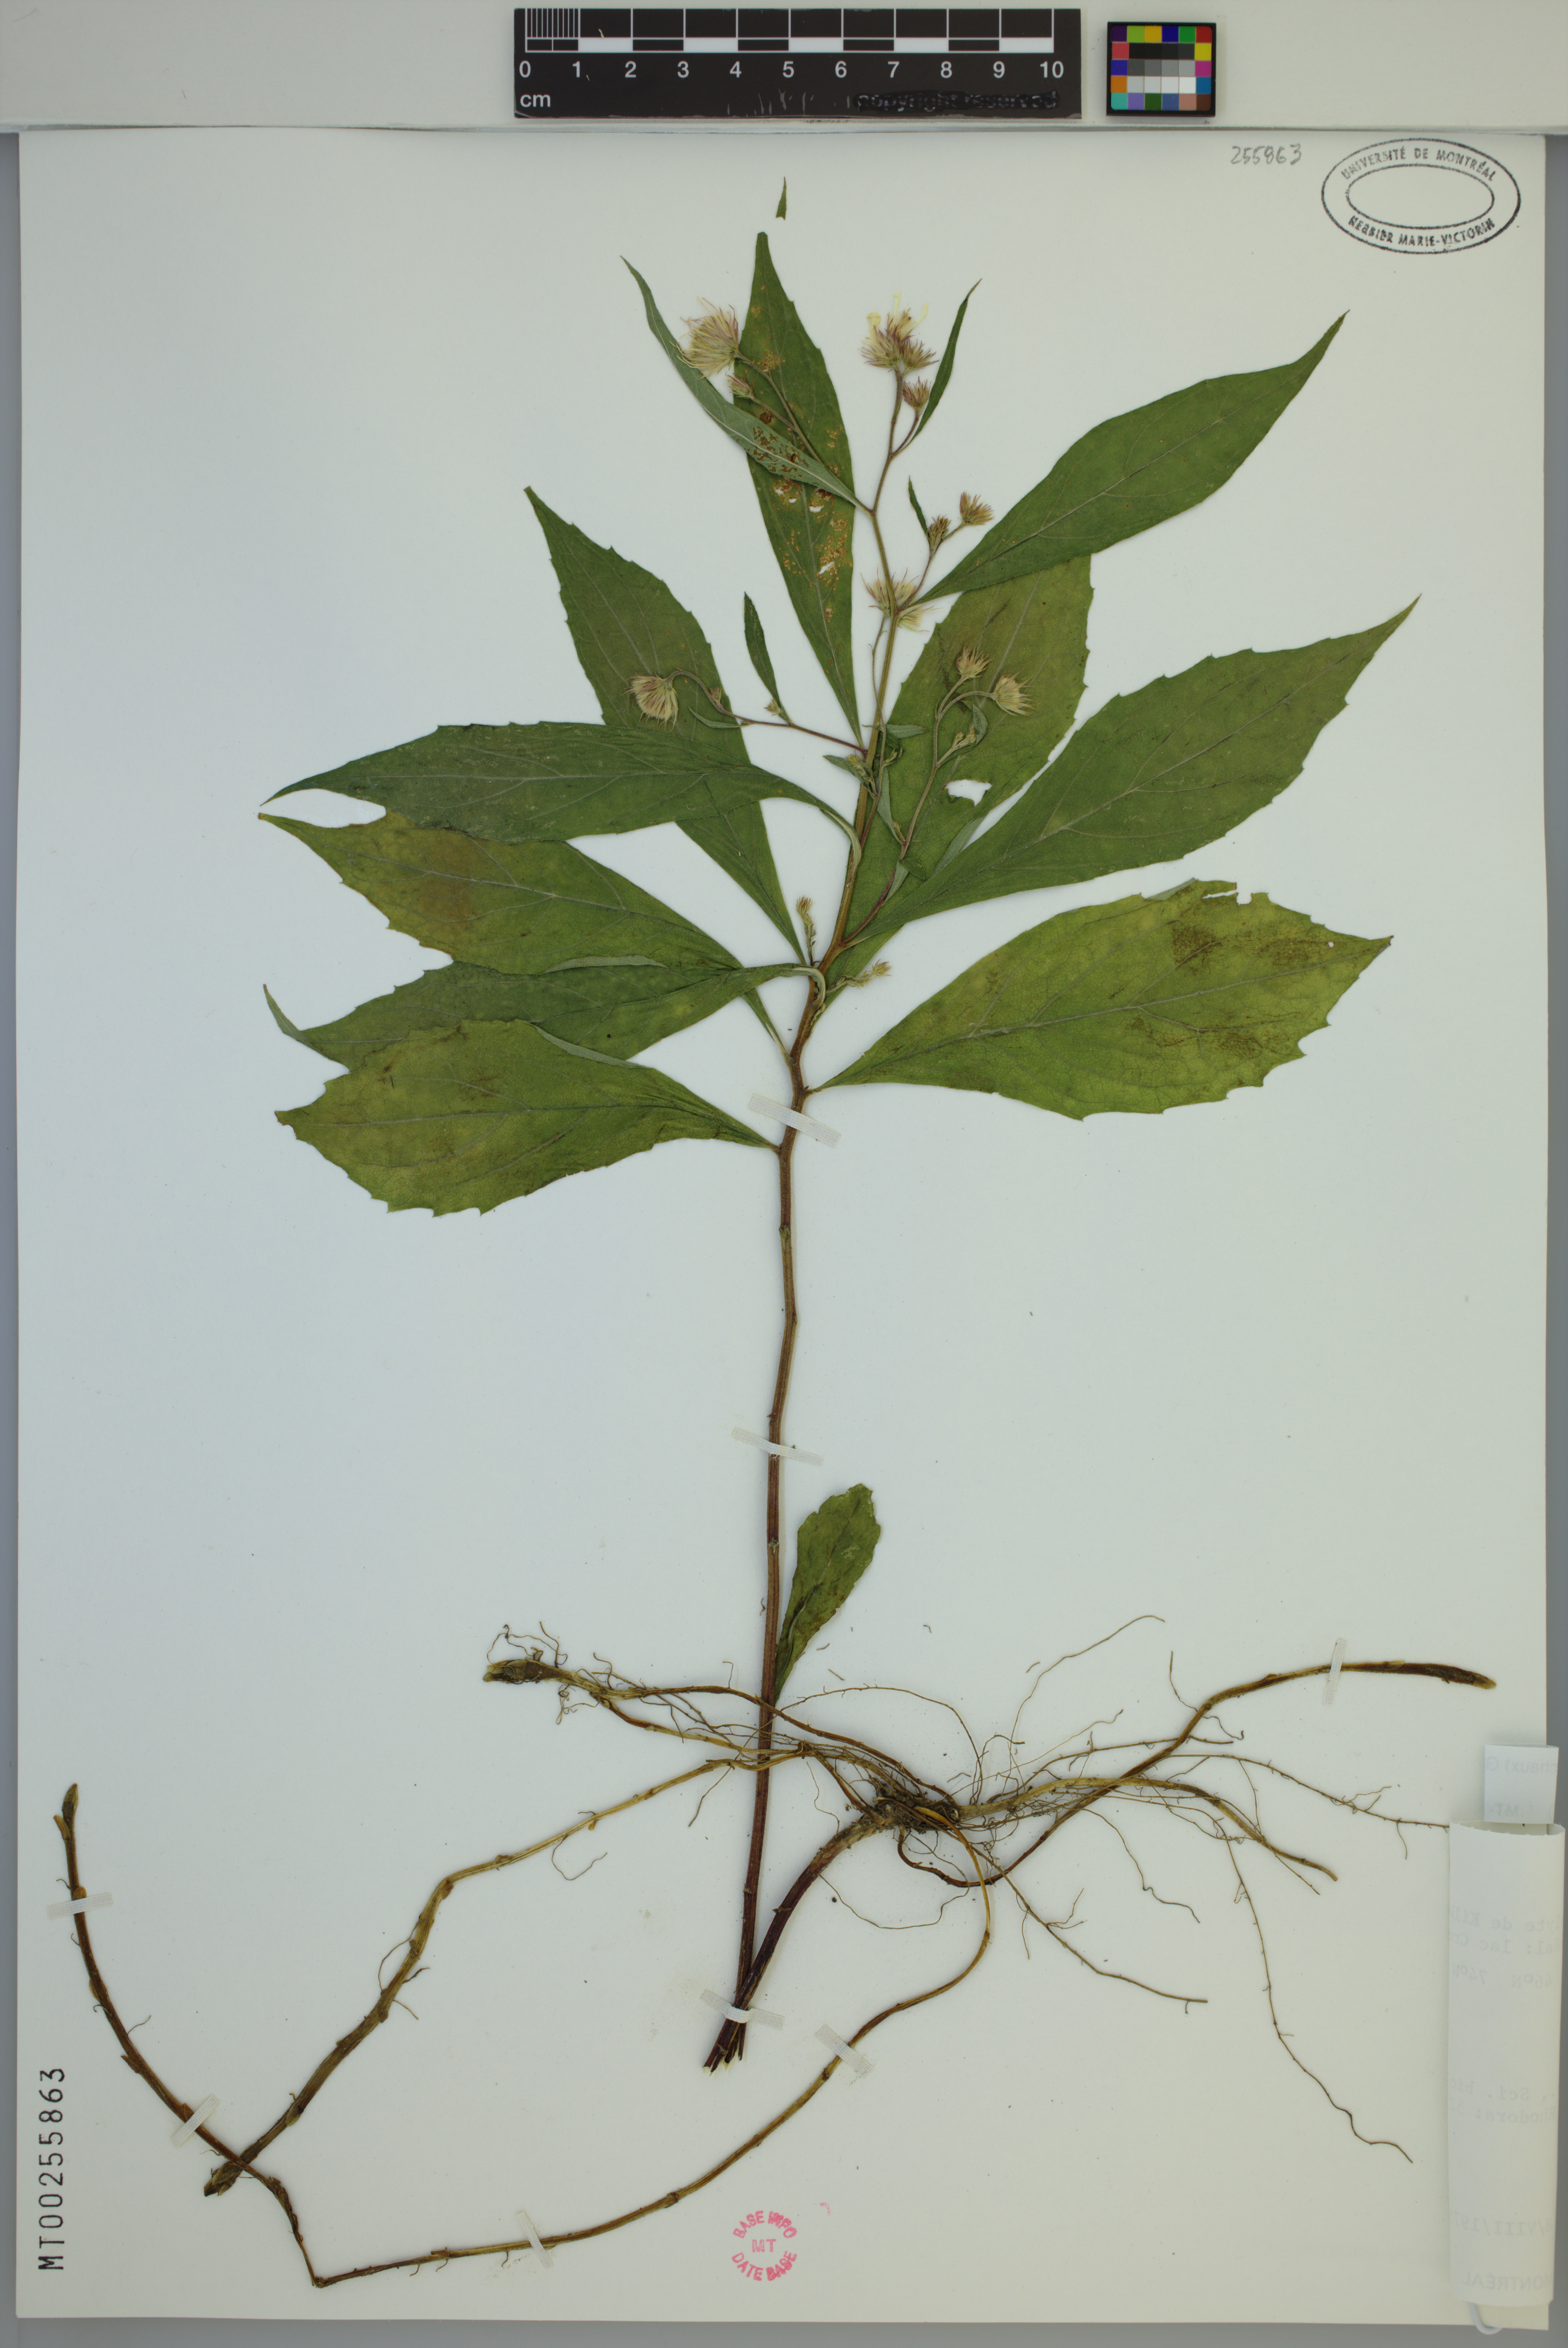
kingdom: Plantae
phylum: Tracheophyta
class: Magnoliopsida
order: Asterales
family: Asteraceae
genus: Oclemena
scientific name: Oclemena acuminata
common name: Mountain aster
